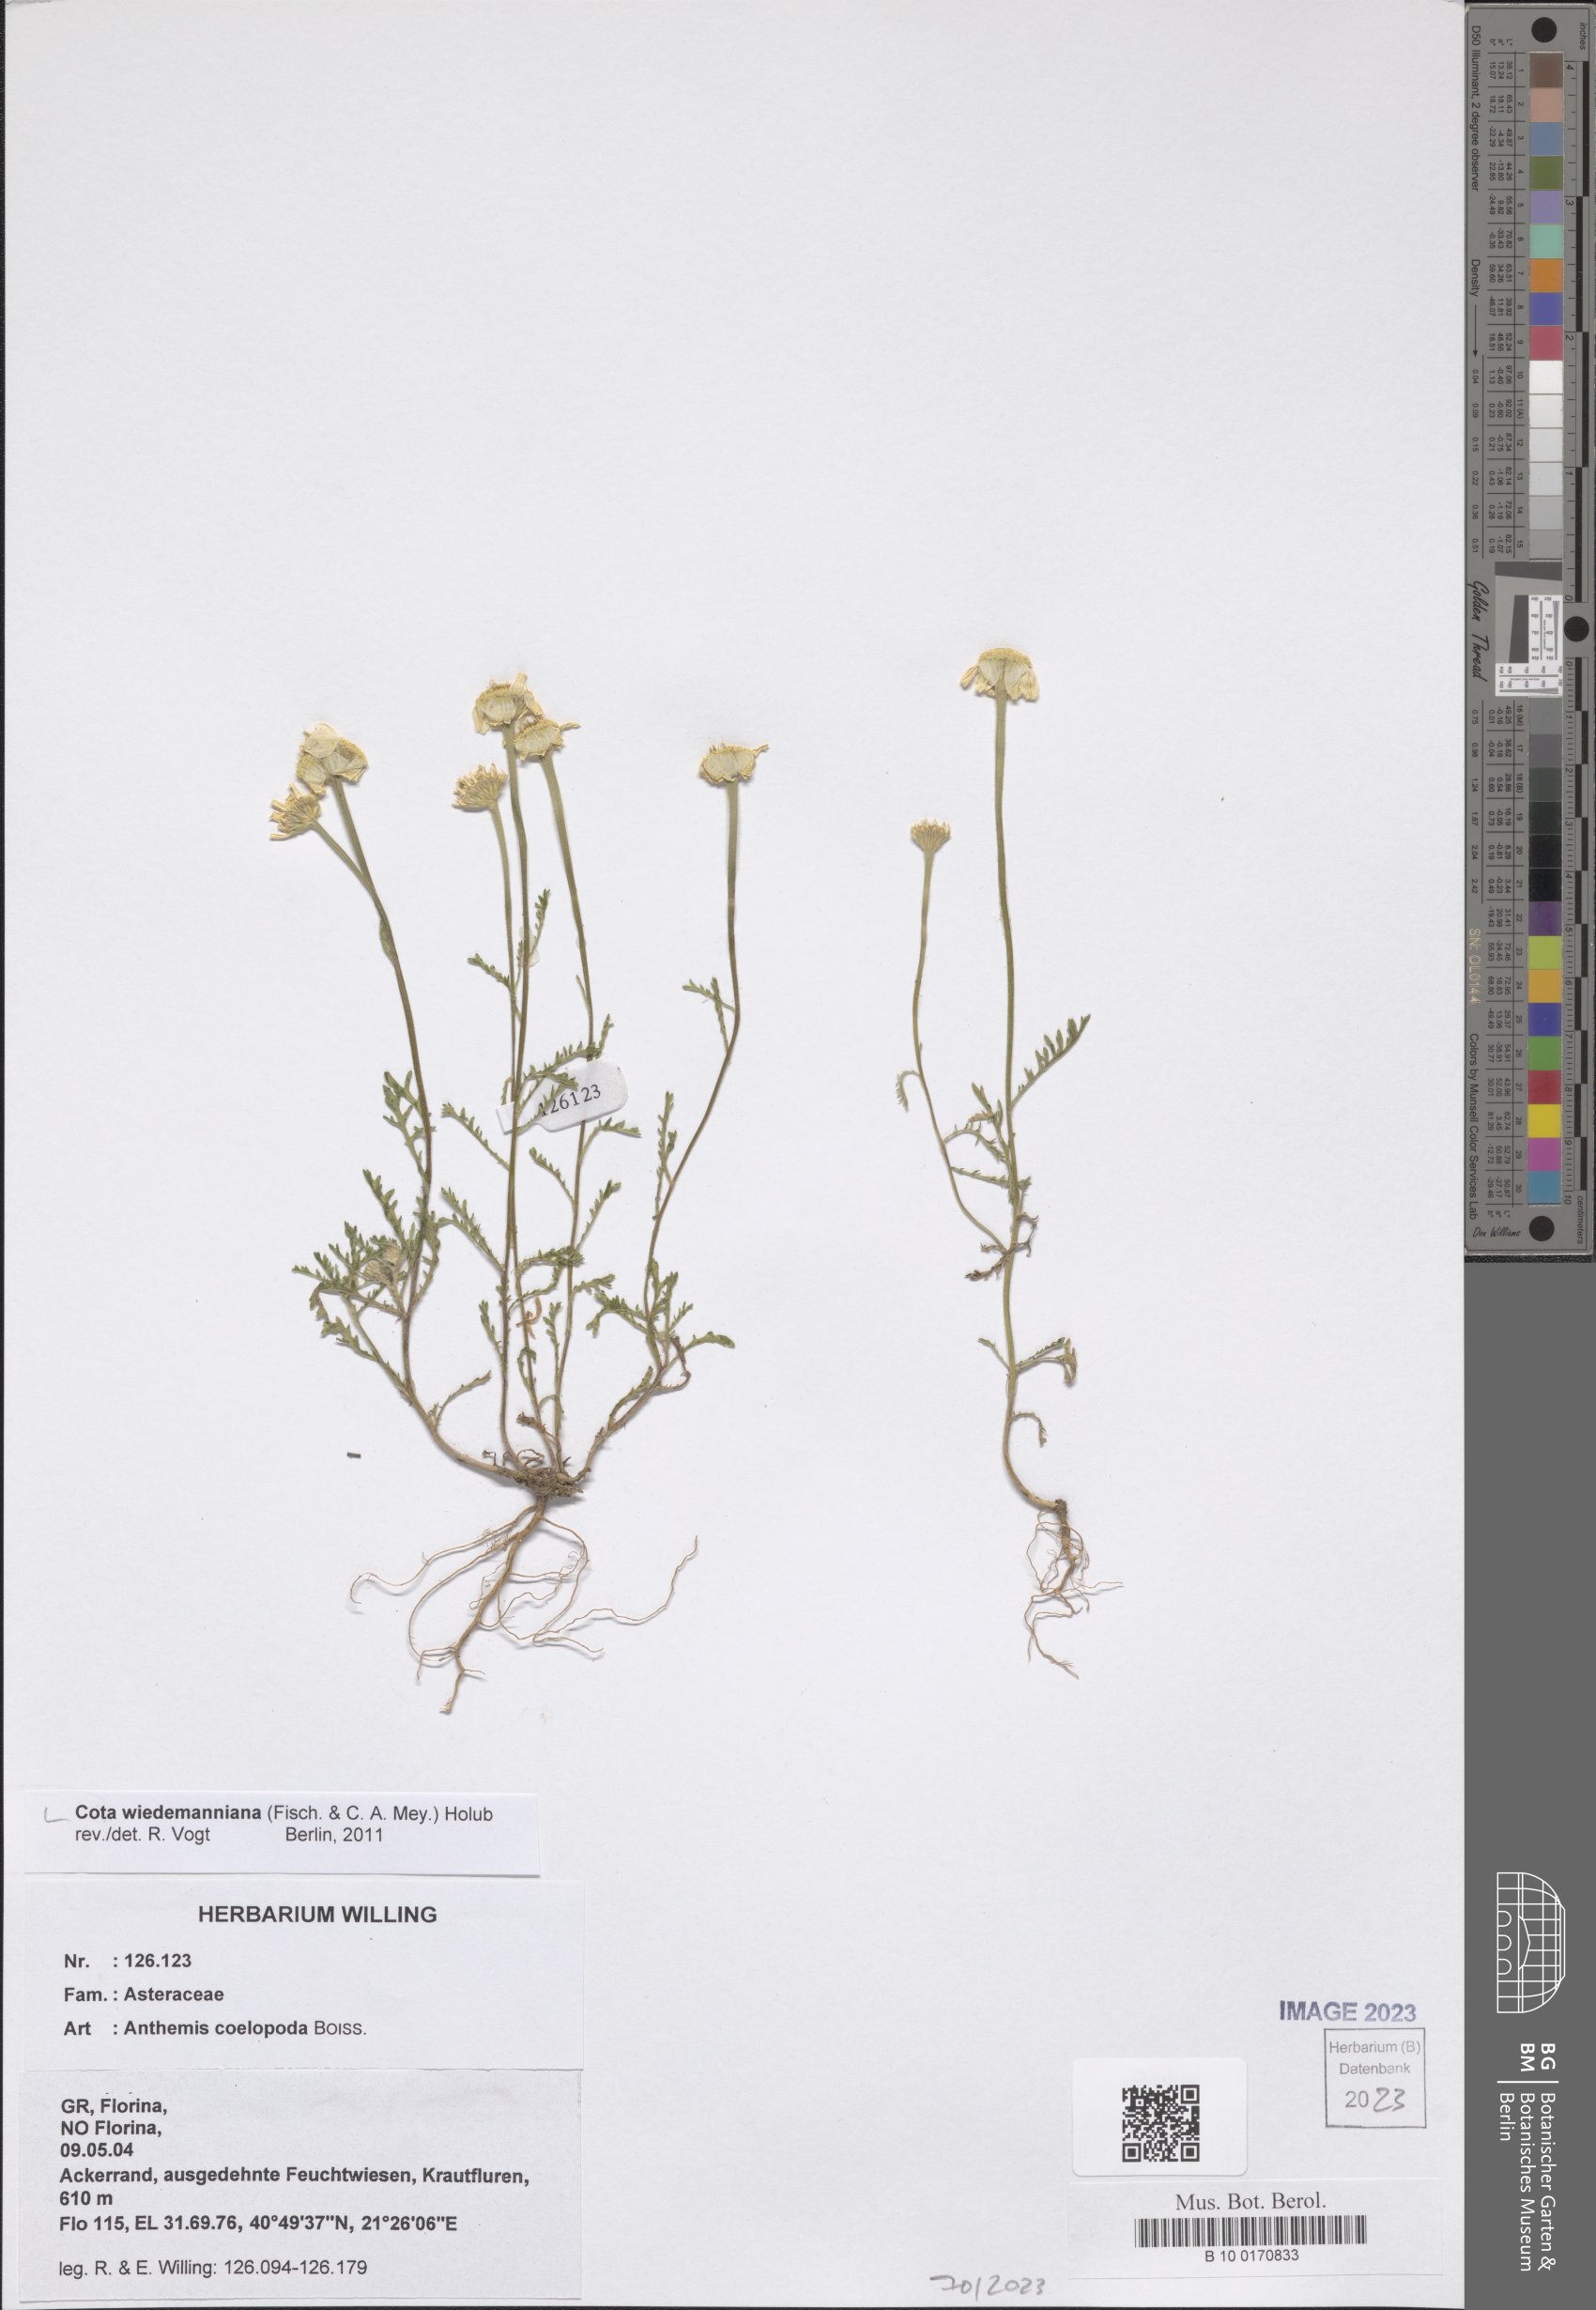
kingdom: Plantae
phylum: Tracheophyta
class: Magnoliopsida
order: Asterales
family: Asteraceae
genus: Cota
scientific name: Cota wiedemanniana
